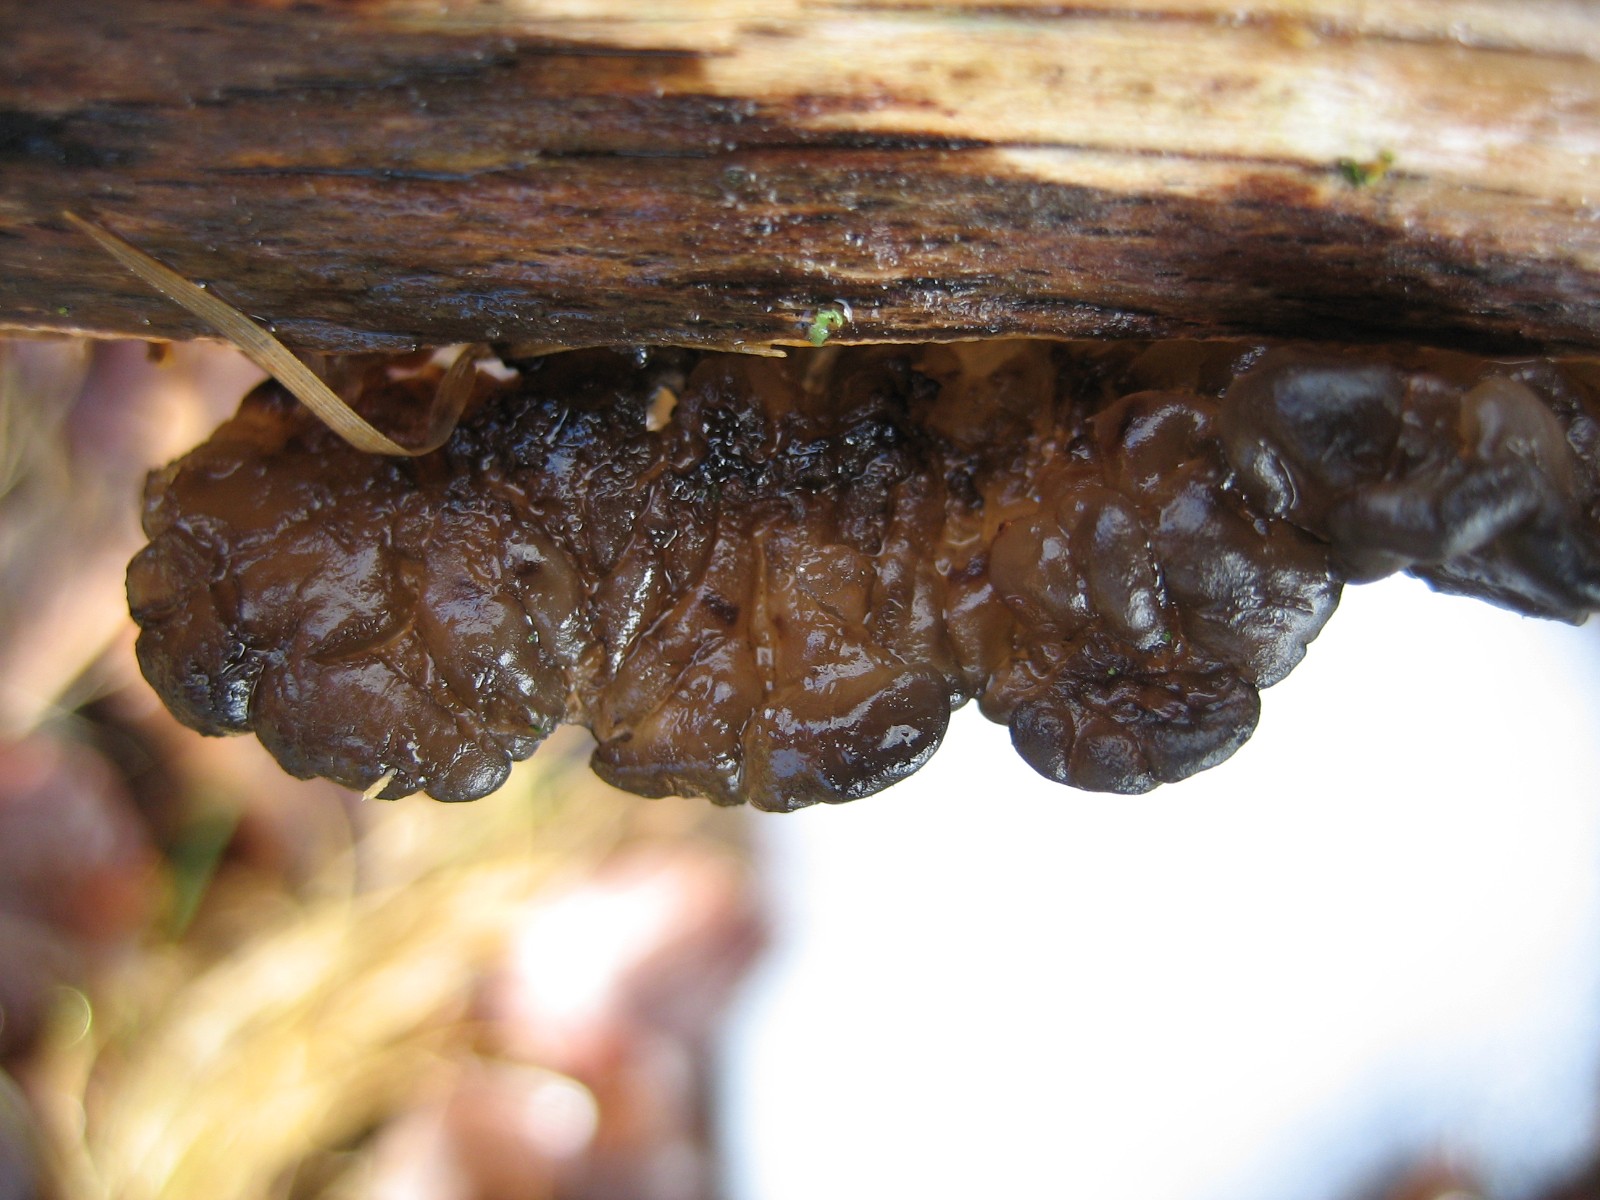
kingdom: Fungi
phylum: Basidiomycota
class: Agaricomycetes
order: Auriculariales
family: Auriculariaceae
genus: Exidia
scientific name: Exidia glandulosa
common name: ege-bævretop
